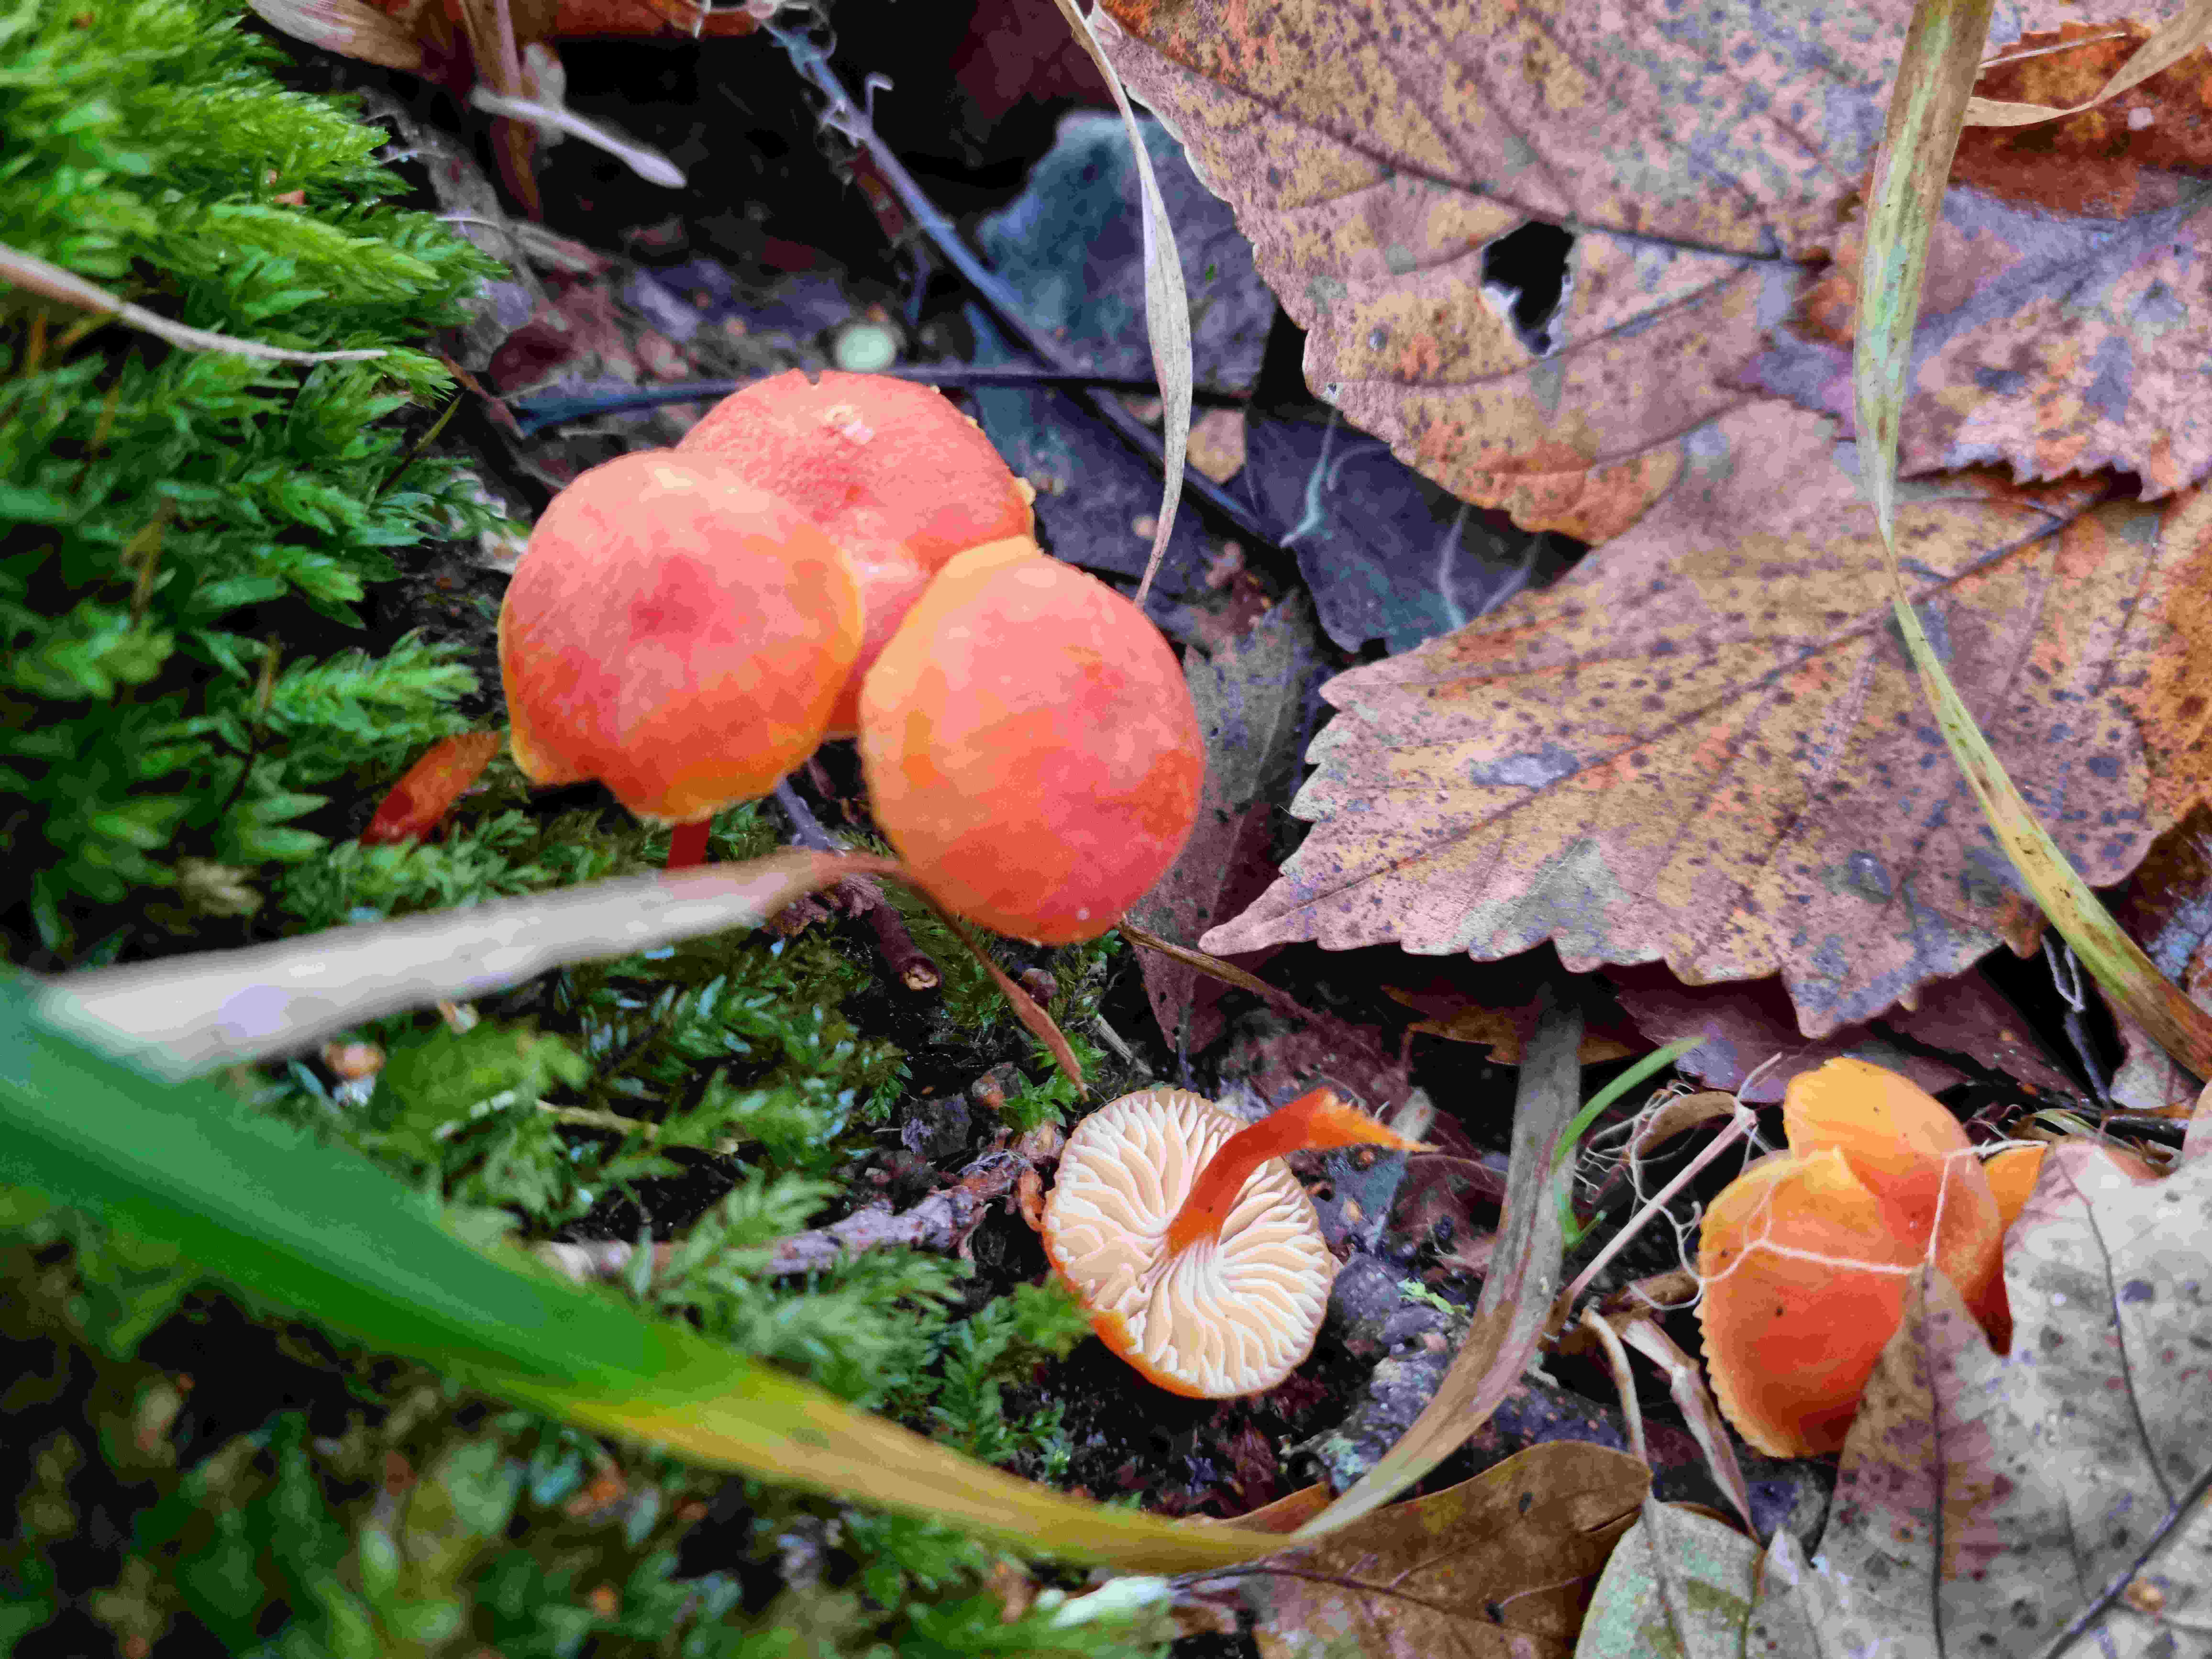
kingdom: Fungi
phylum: Basidiomycota
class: Agaricomycetes
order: Agaricales
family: Hygrophoraceae
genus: Hygrocybe
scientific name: Hygrocybe
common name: vokshat
